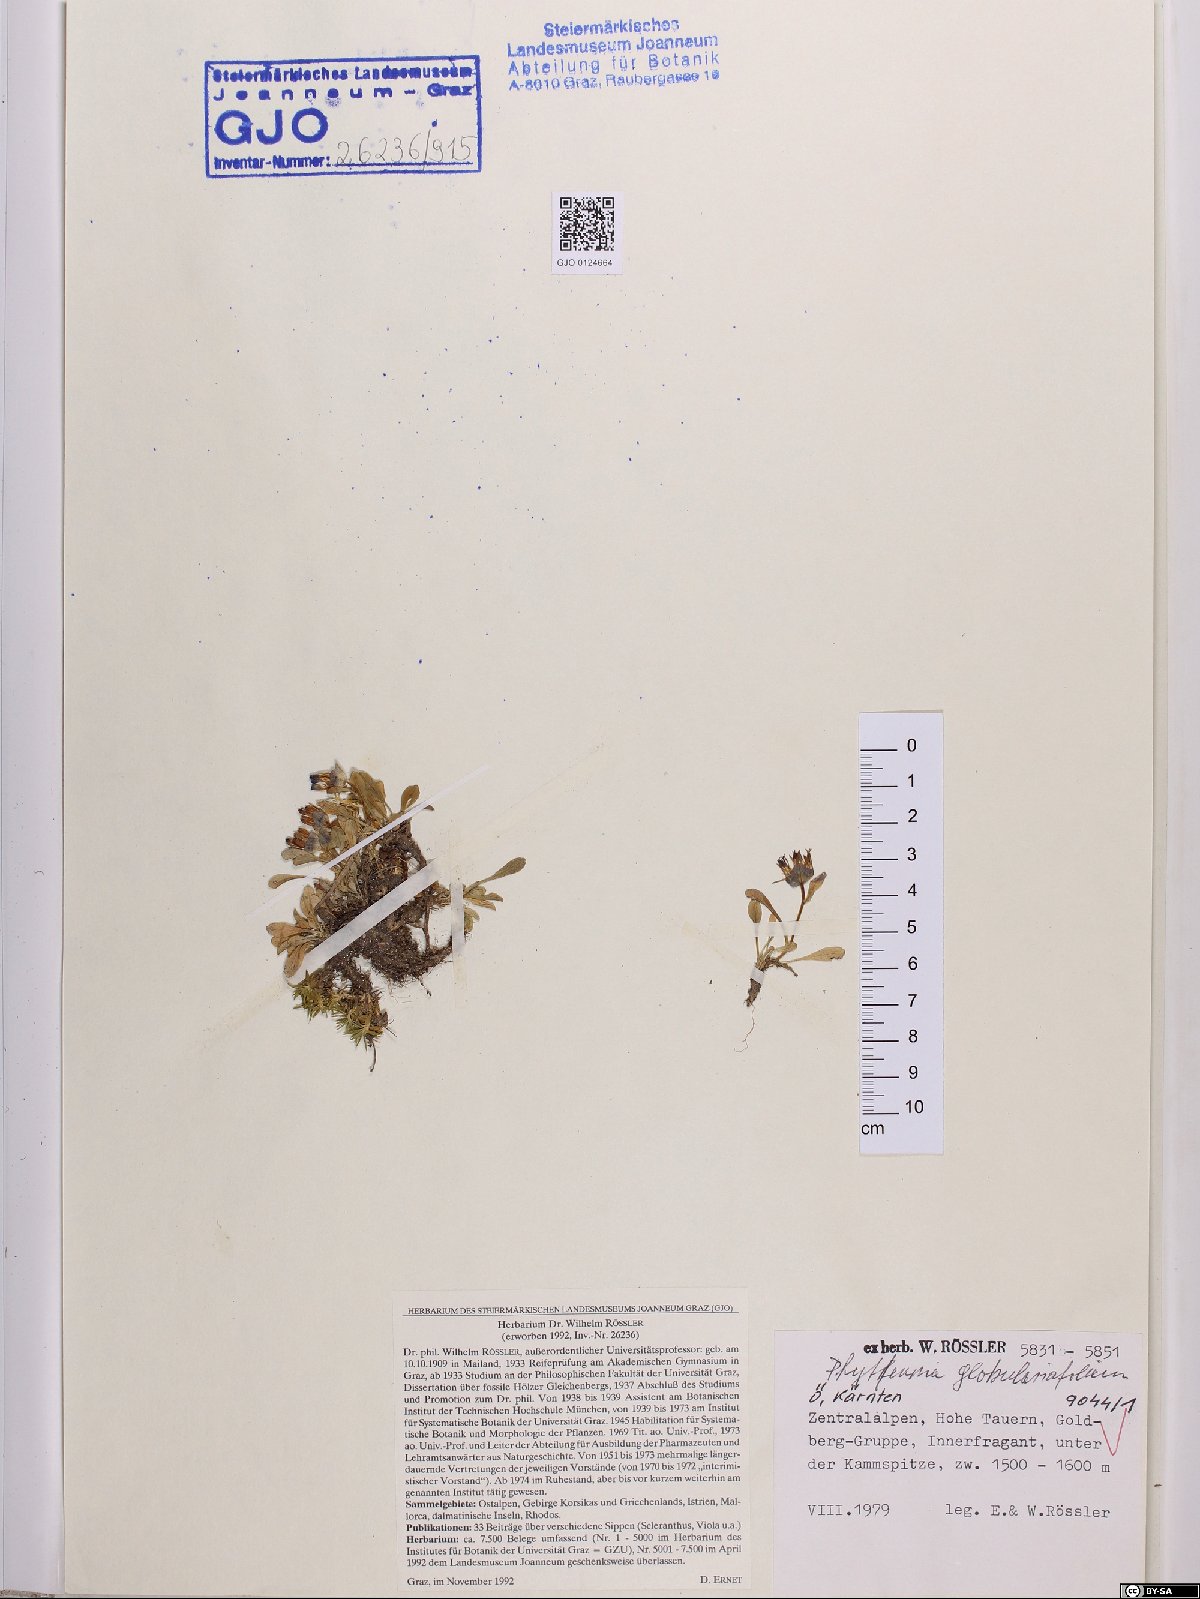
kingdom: Plantae
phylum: Tracheophyta
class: Magnoliopsida
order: Asterales
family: Campanulaceae
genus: Phyteuma
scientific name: Phyteuma globulariifolium
